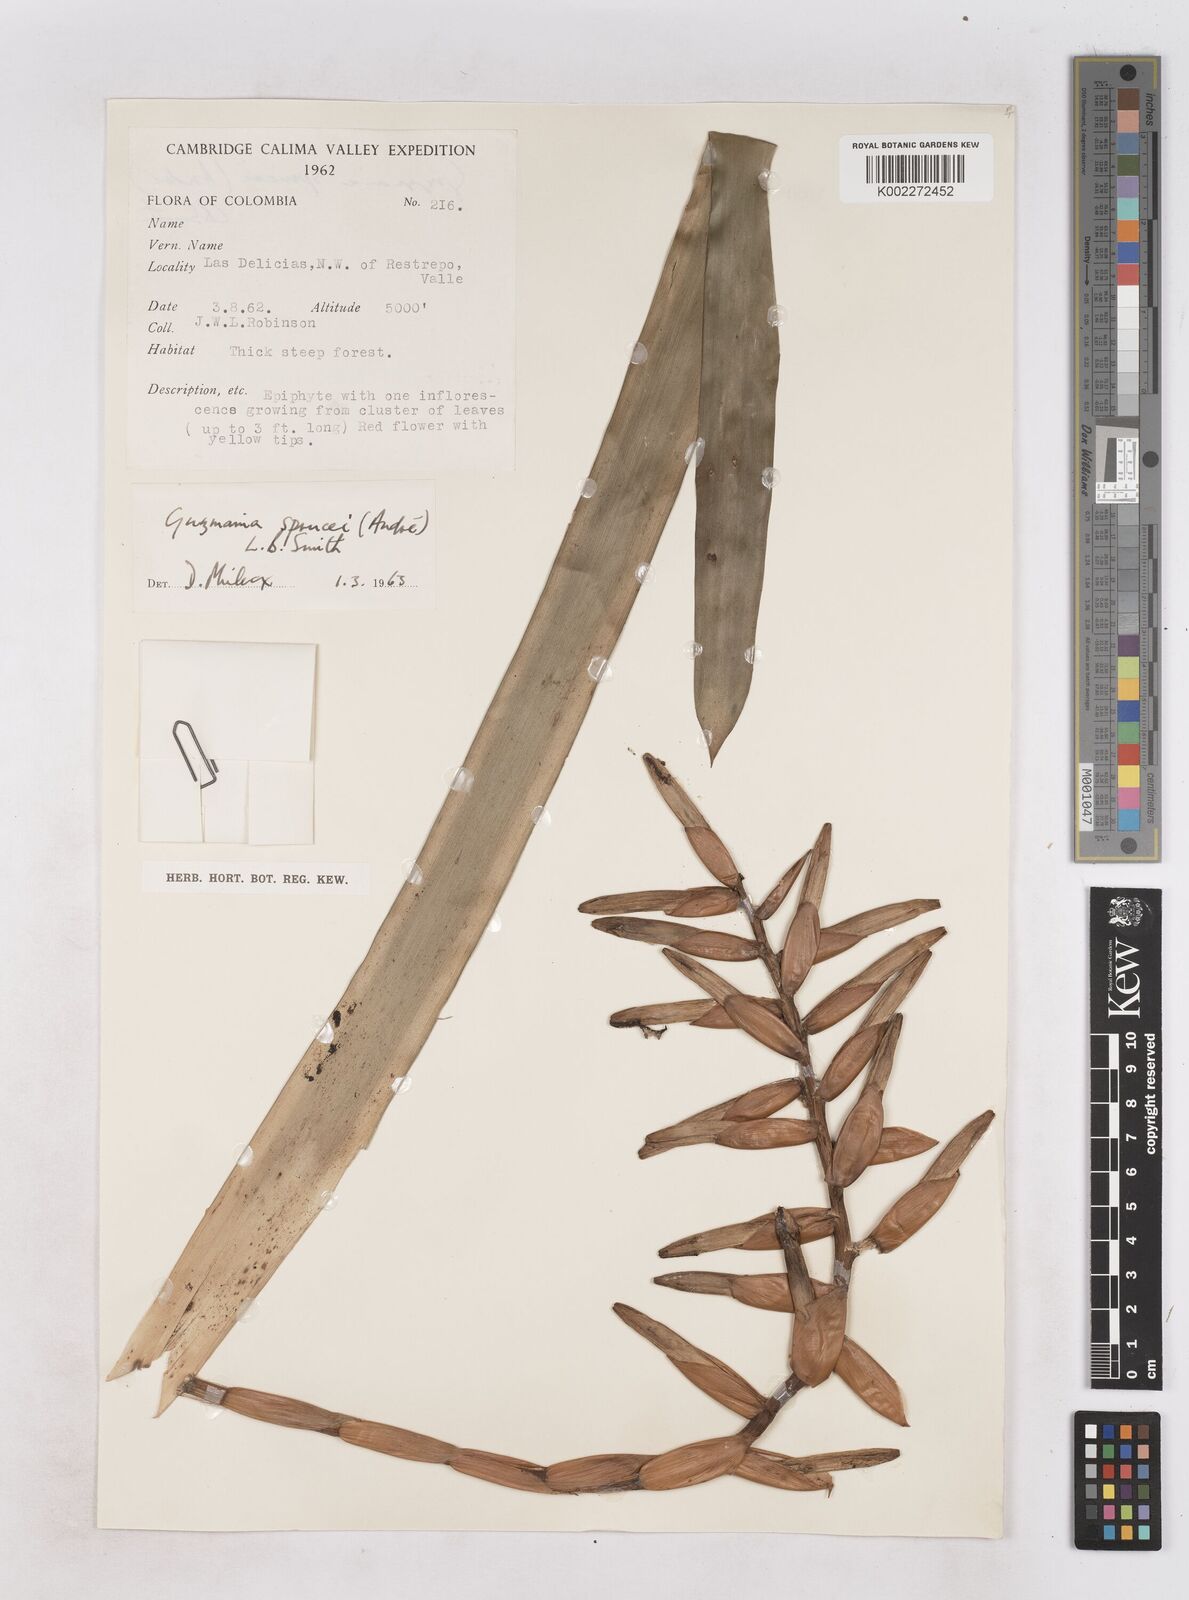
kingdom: Plantae
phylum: Tracheophyta
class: Liliopsida
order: Poales
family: Bromeliaceae
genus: Guzmania
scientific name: Guzmania sprucei
